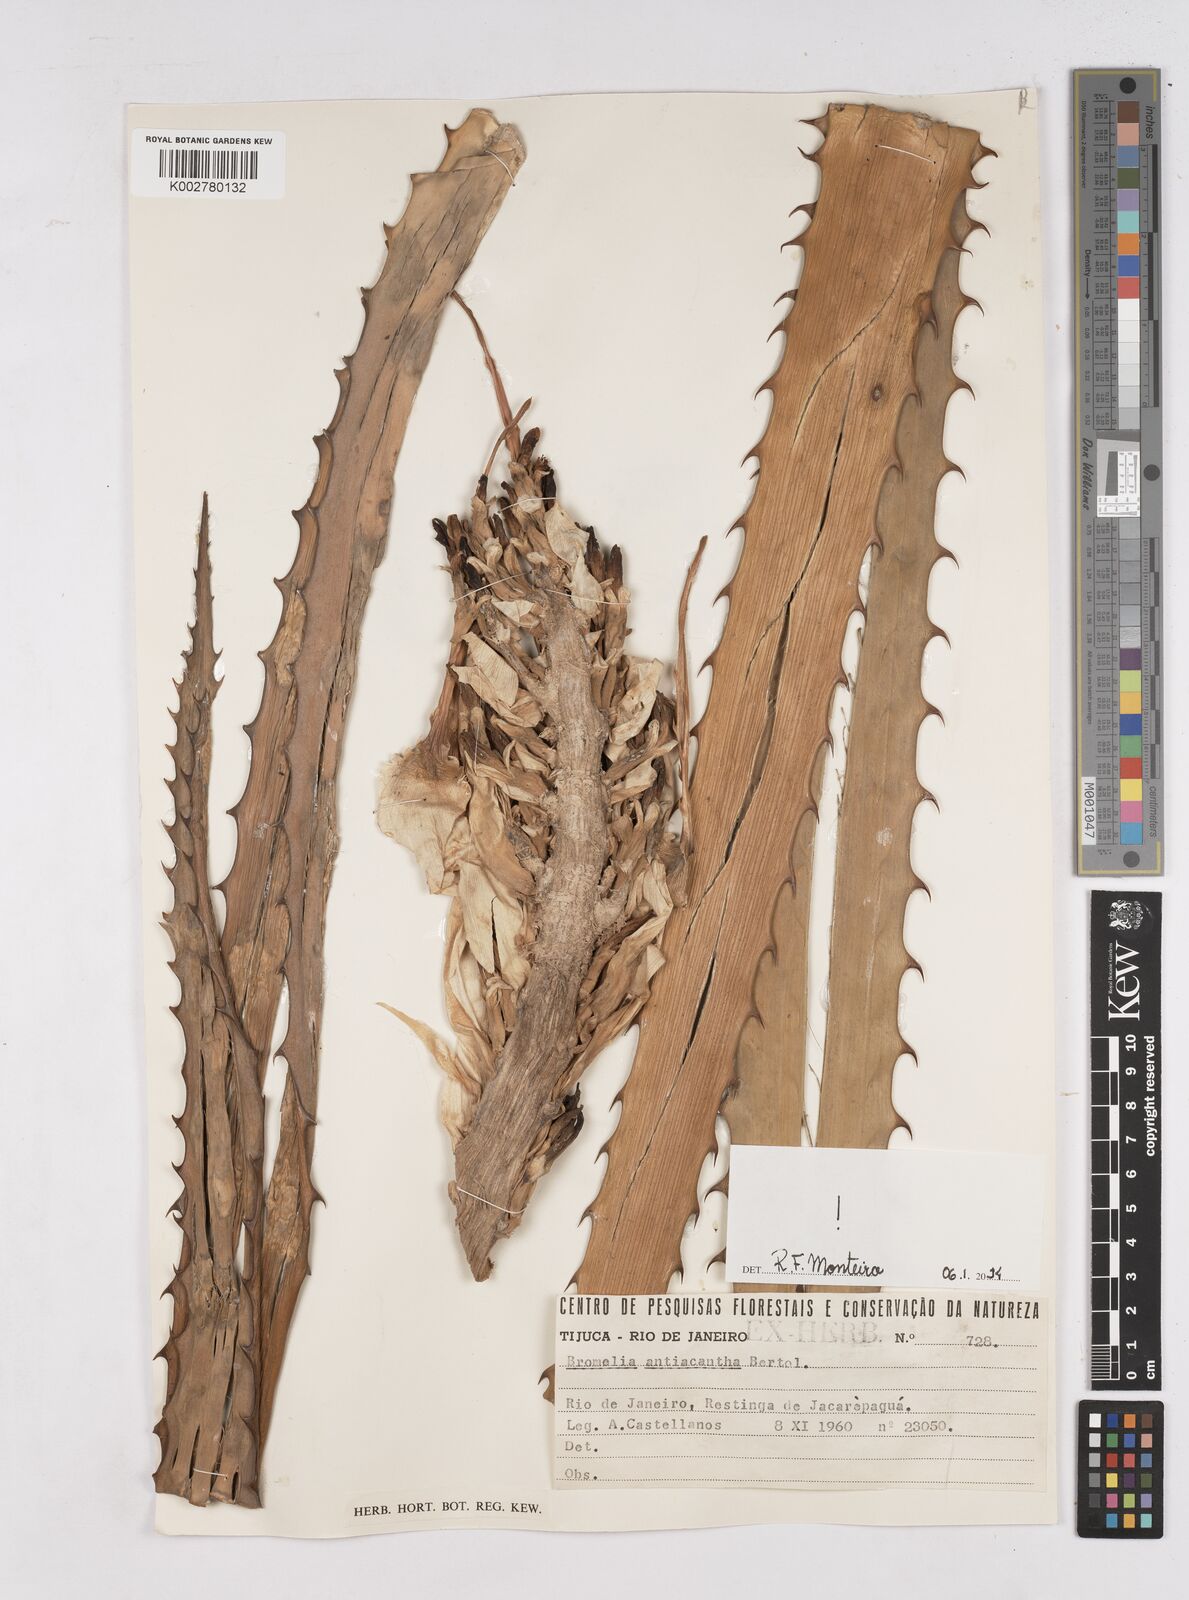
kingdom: Plantae
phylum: Tracheophyta
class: Liliopsida
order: Poales
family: Bromeliaceae
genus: Bromelia
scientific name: Bromelia antiacantha
